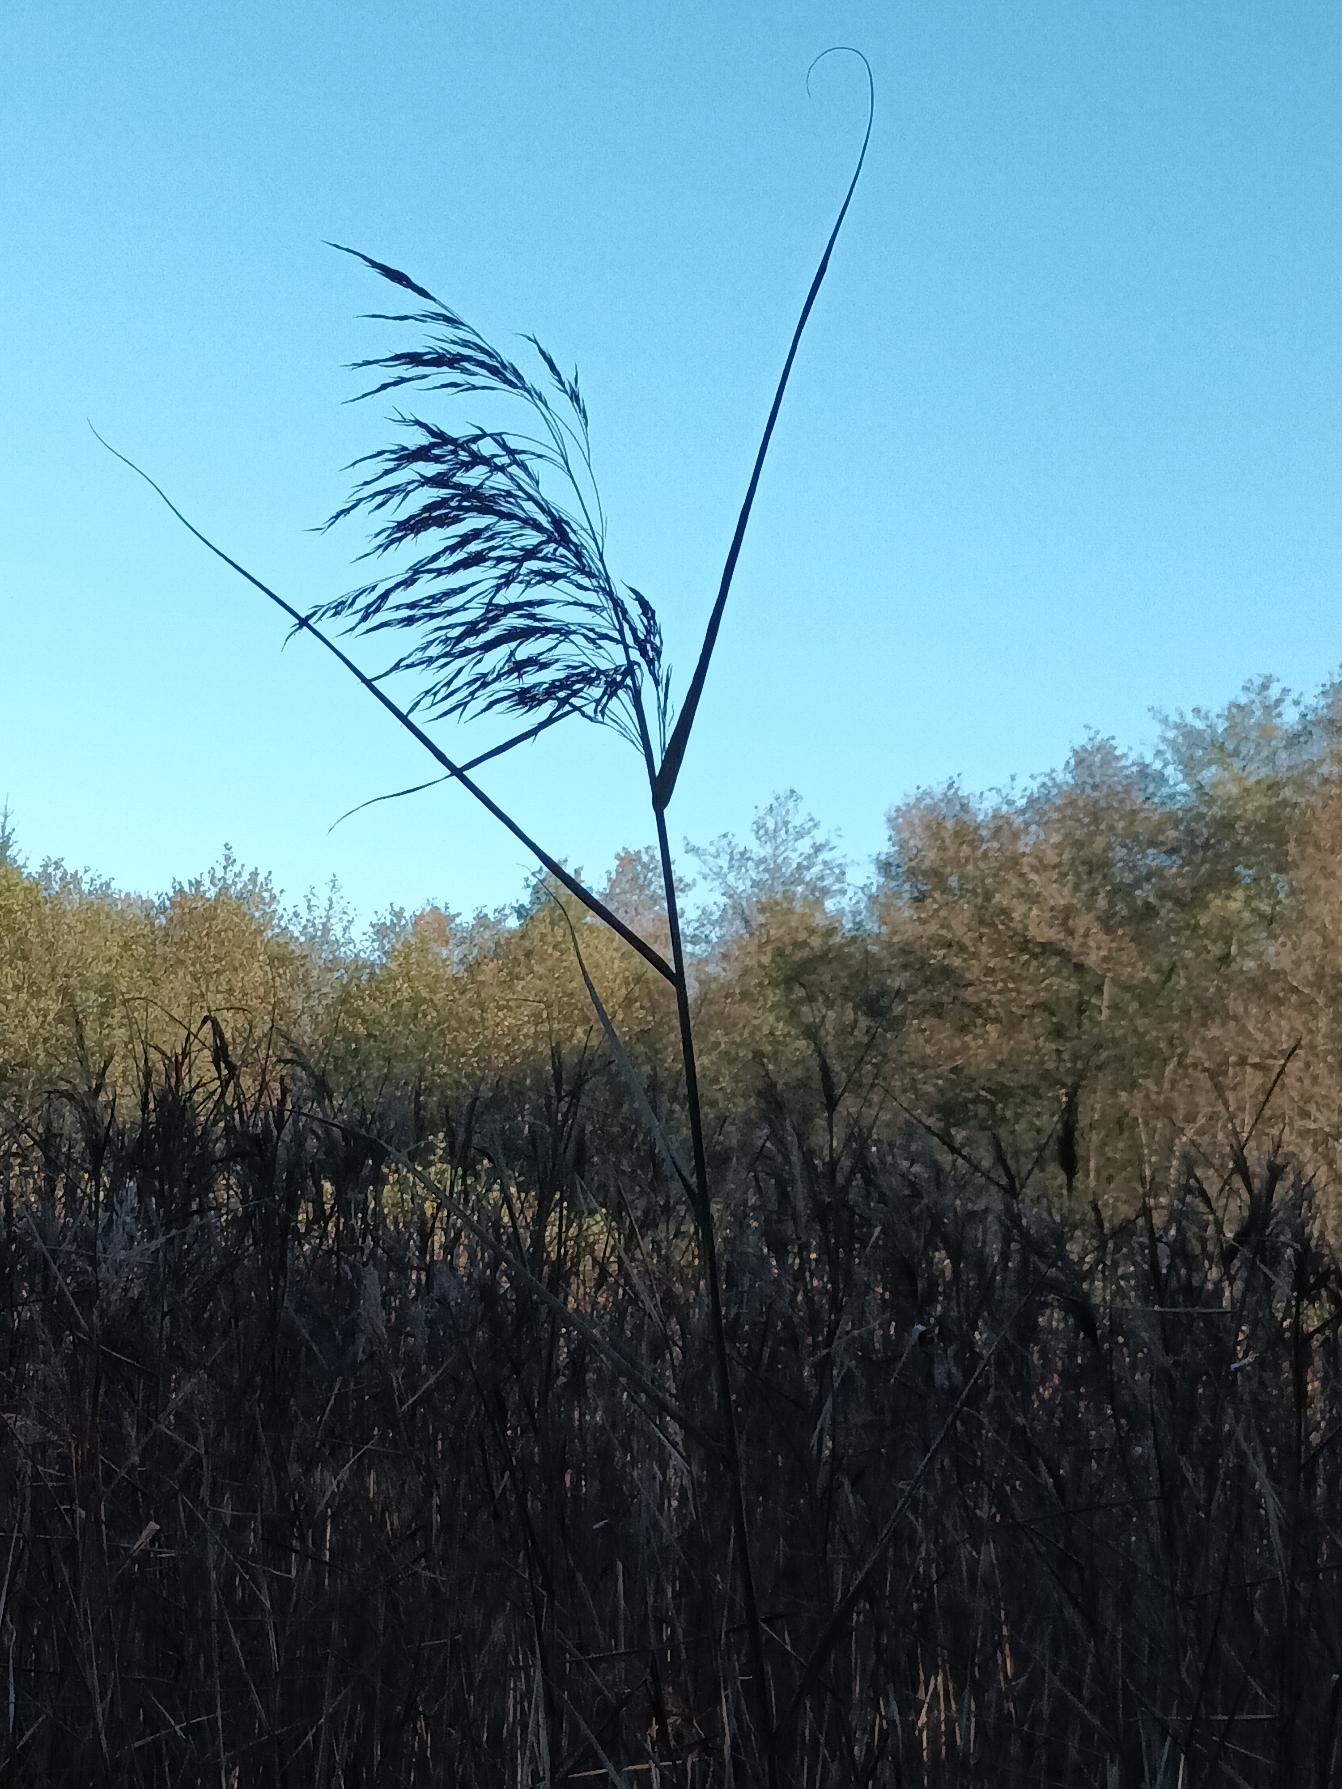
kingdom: Plantae
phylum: Tracheophyta
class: Liliopsida
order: Poales
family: Poaceae
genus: Phragmites
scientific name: Phragmites australis
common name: Tagrør
